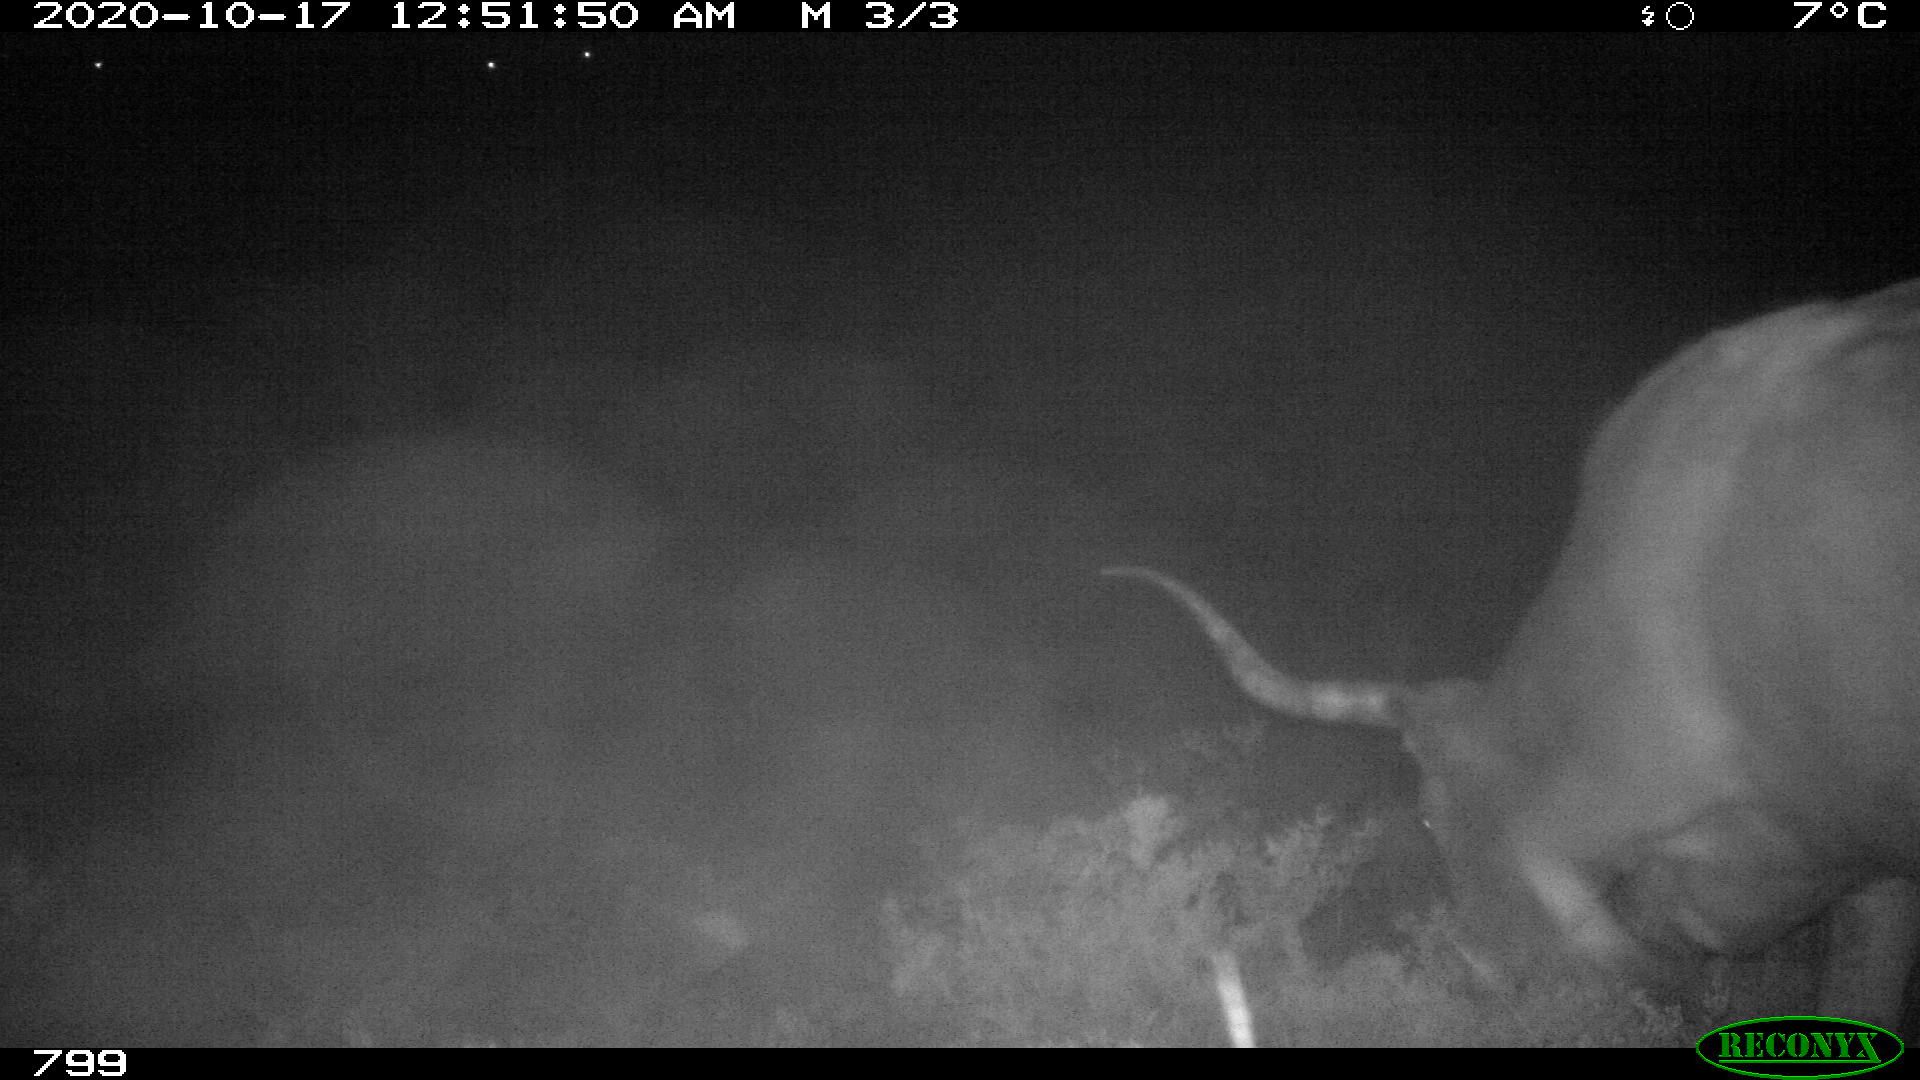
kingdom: Animalia
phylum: Chordata
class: Mammalia
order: Artiodactyla
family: Bovidae
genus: Bos
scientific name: Bos taurus
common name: Domesticated cattle
